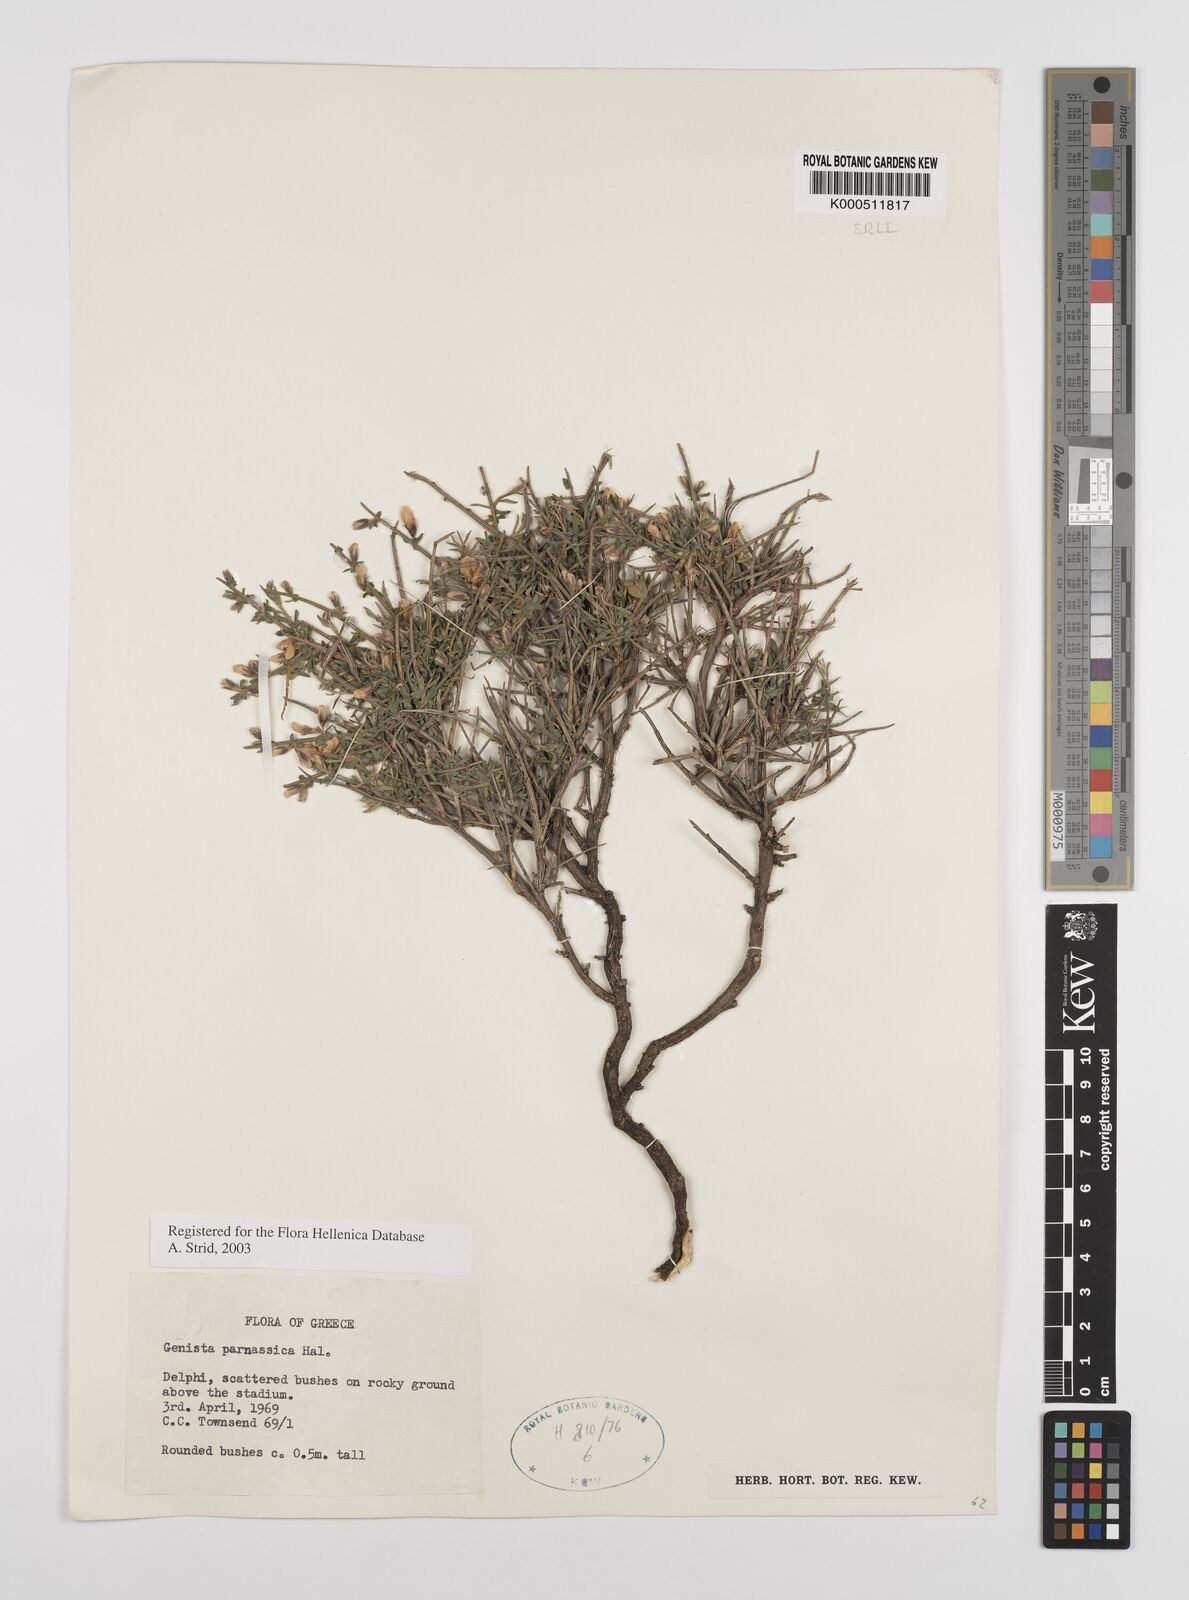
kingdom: Plantae
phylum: Tracheophyta
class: Magnoliopsida
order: Fabales
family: Fabaceae
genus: Genista
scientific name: Genista parnassica
